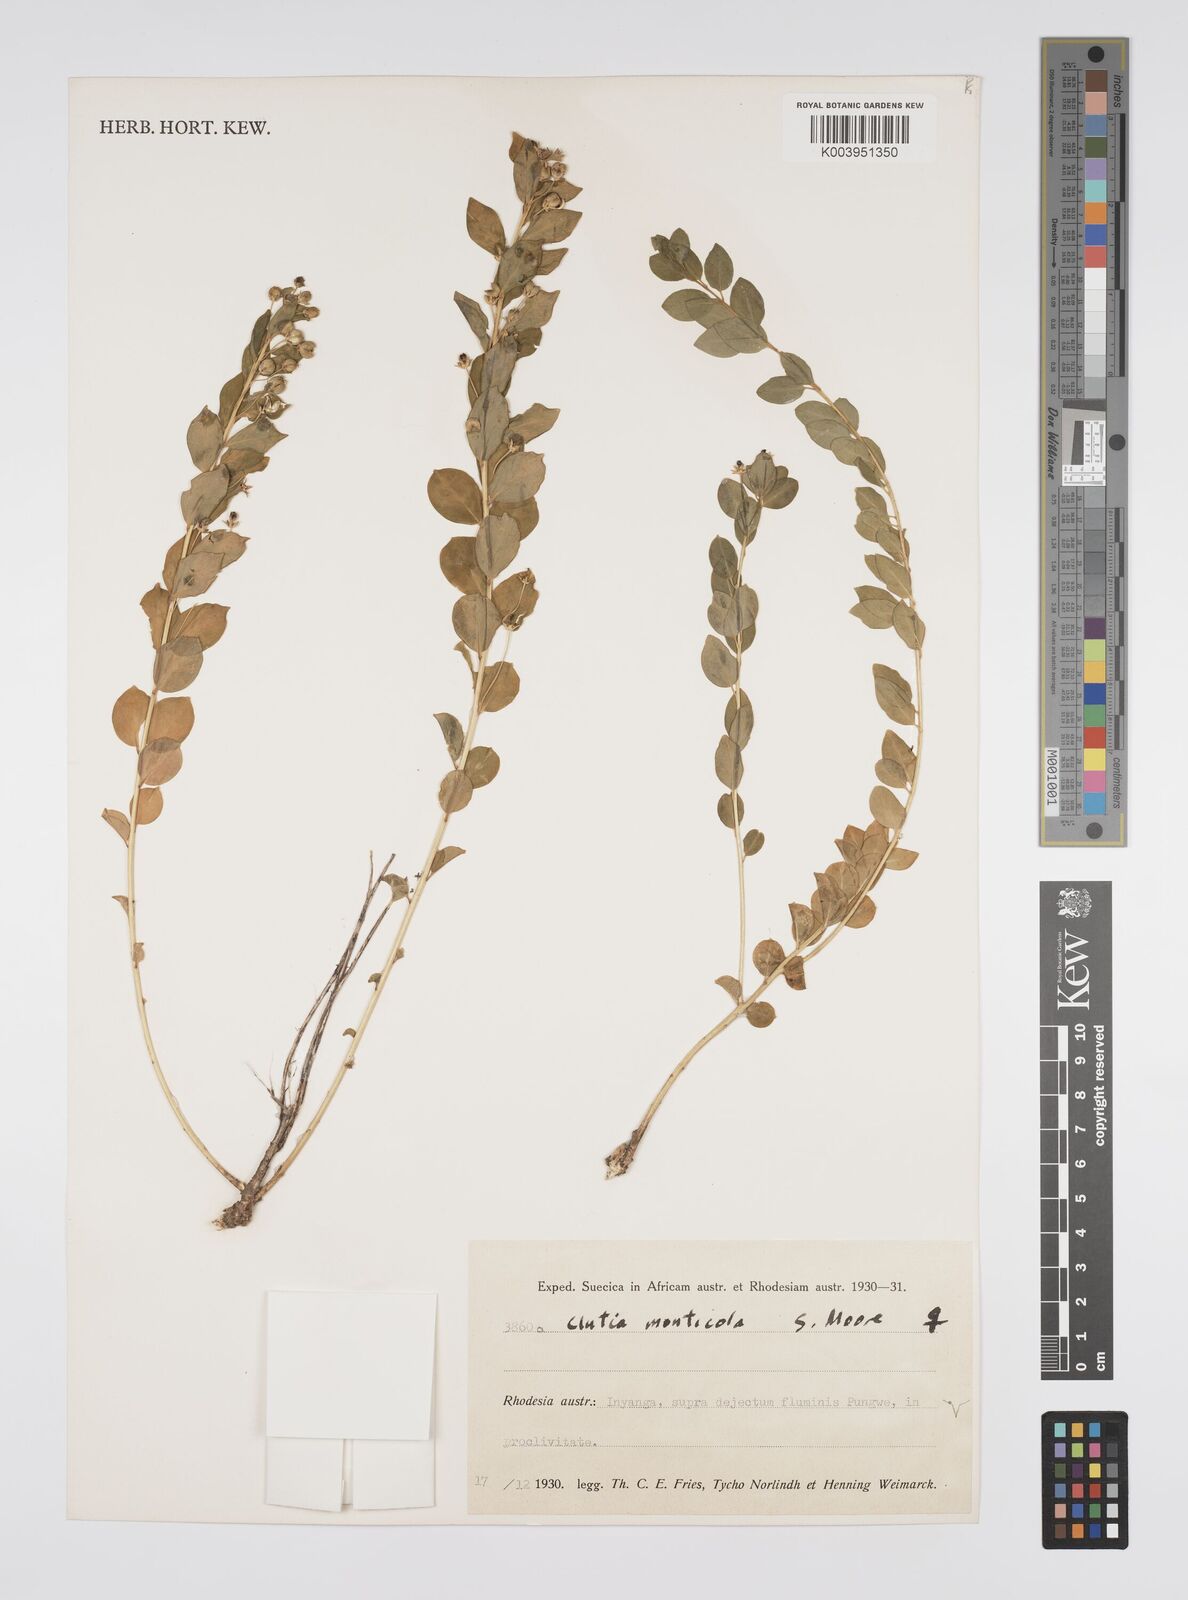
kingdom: Plantae
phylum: Tracheophyta
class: Magnoliopsida
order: Malpighiales
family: Peraceae
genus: Clutia
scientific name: Clutia monticola
